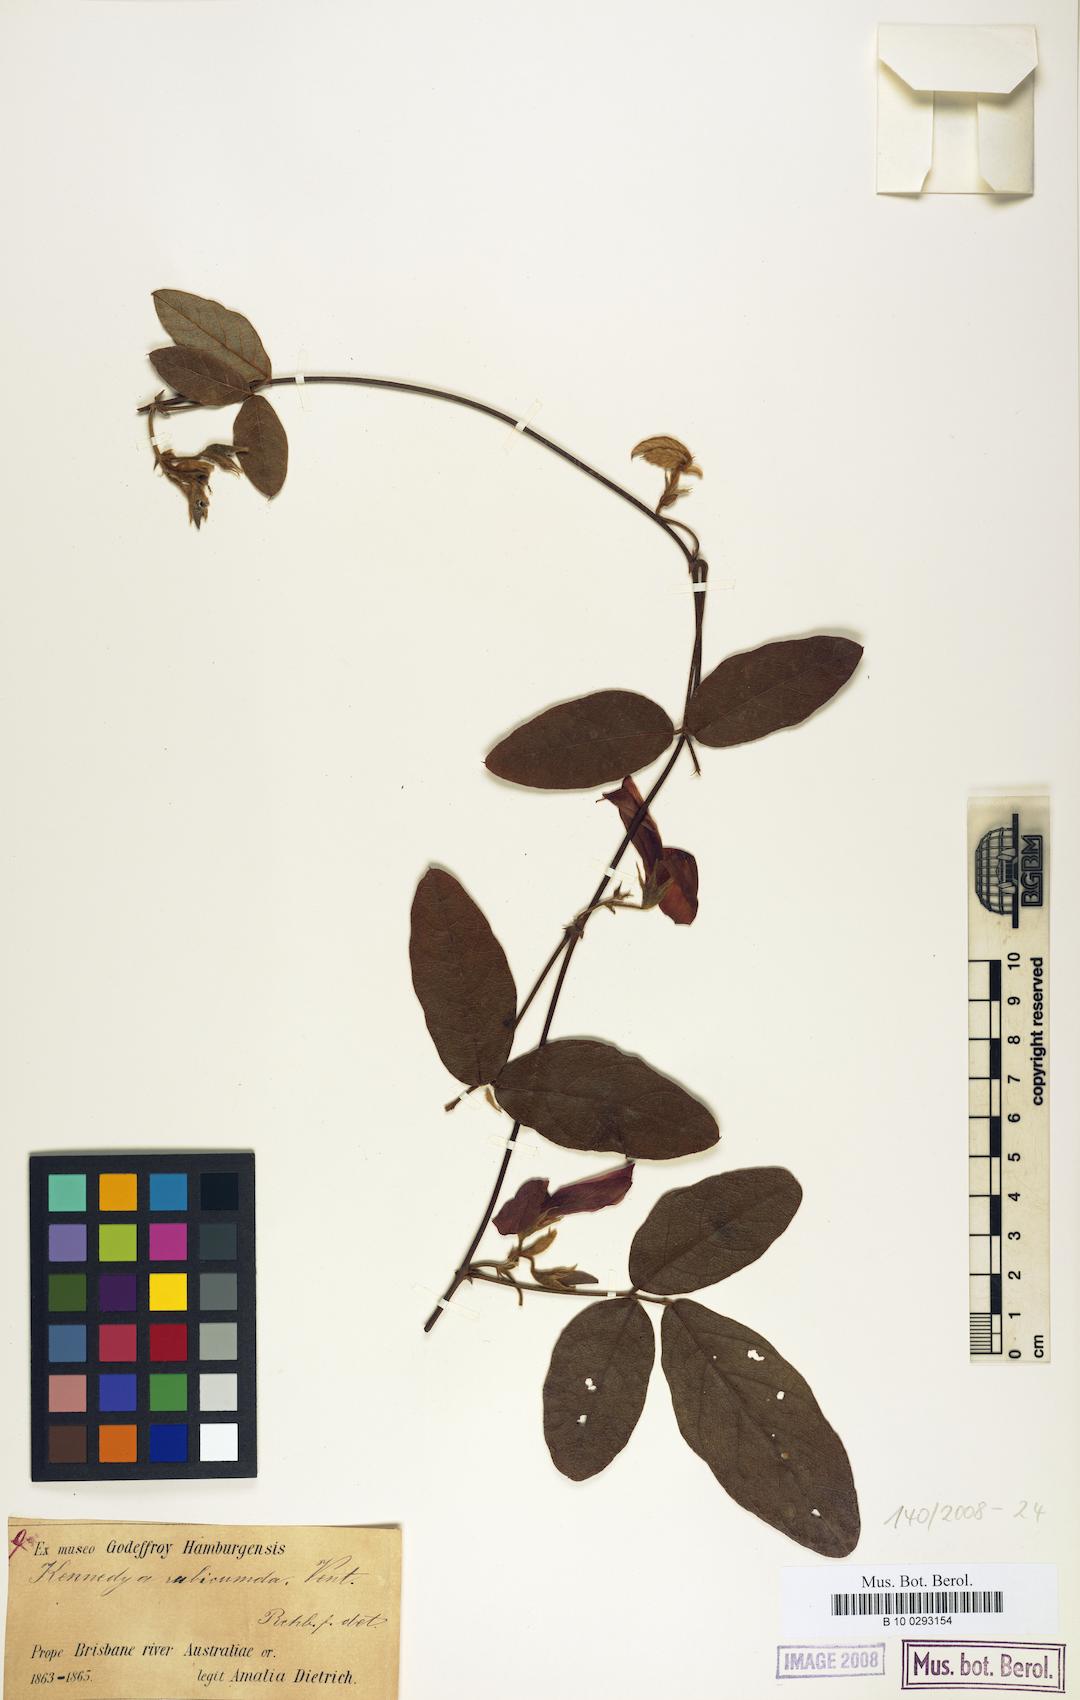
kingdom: Plantae
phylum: Tracheophyta
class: Magnoliopsida
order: Fabales
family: Fabaceae
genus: Kennedia
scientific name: Kennedia rubicunda
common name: Red kennedy-pea
